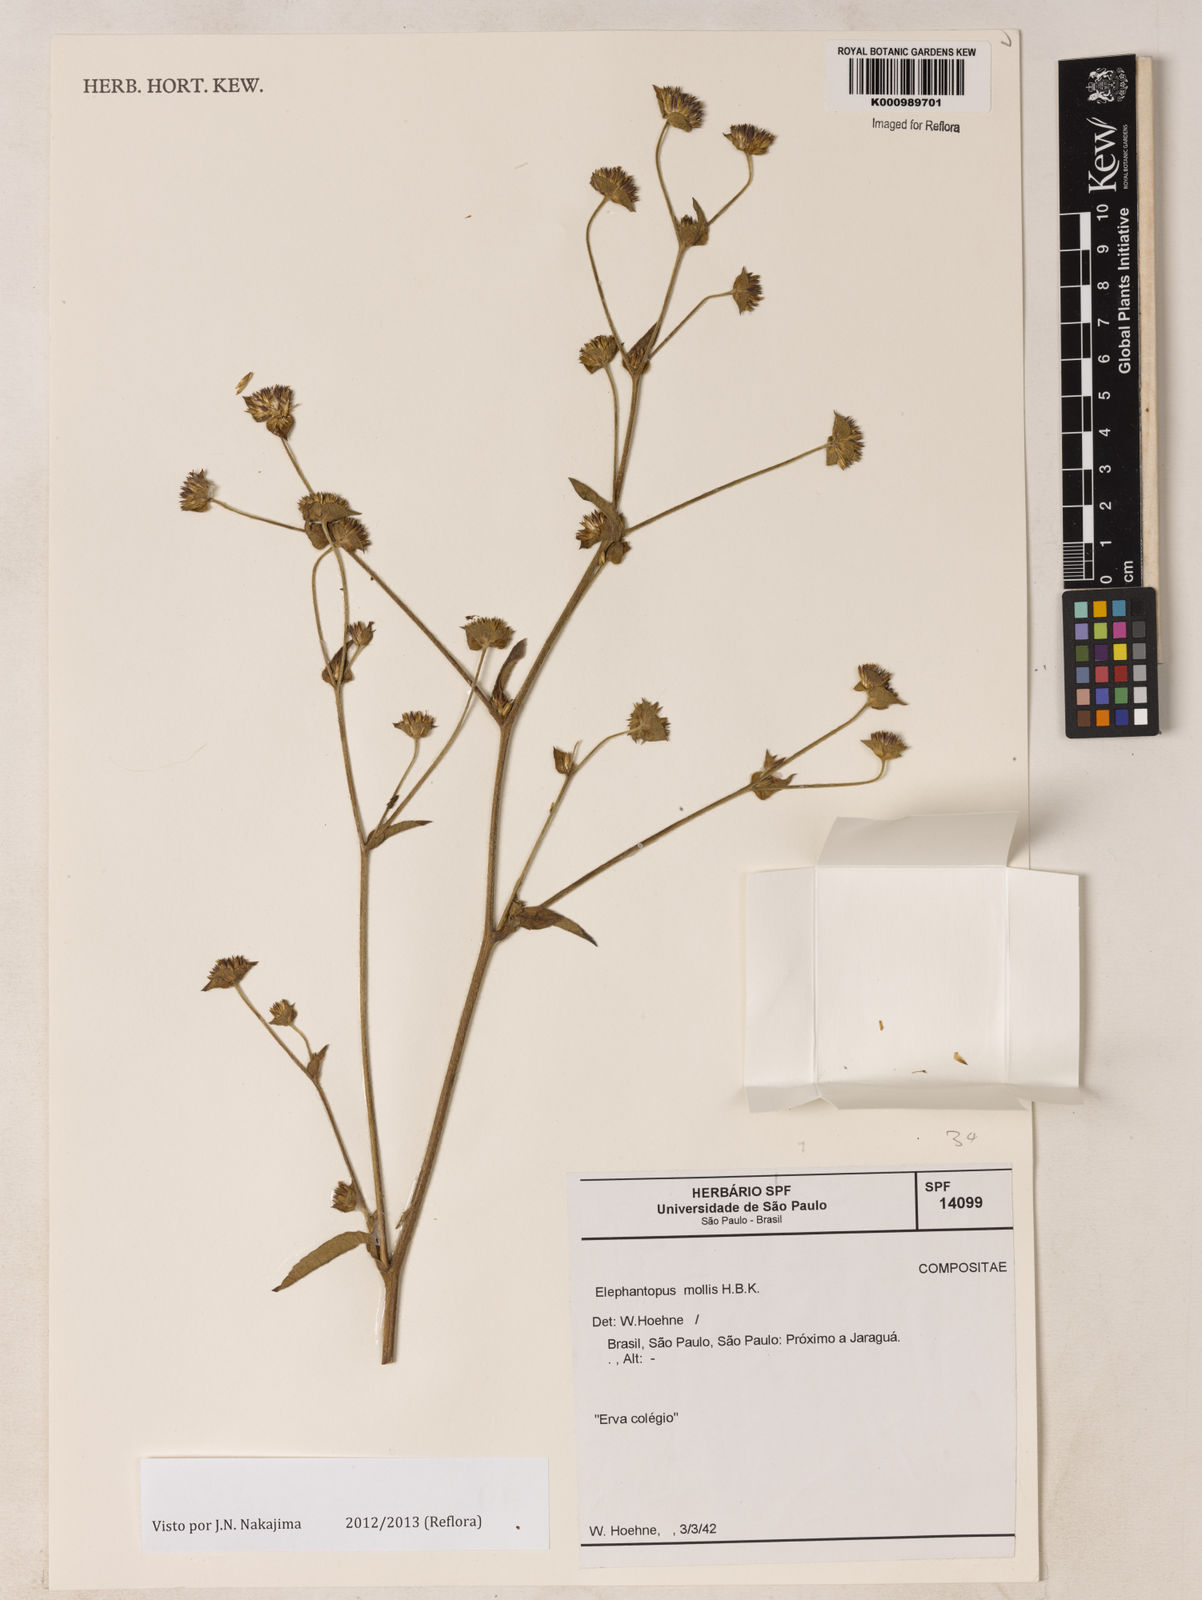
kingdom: Plantae
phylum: Tracheophyta
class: Magnoliopsida
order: Asterales
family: Asteraceae
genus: Elephantopus
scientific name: Elephantopus mollis
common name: Soft elephantsfoot
